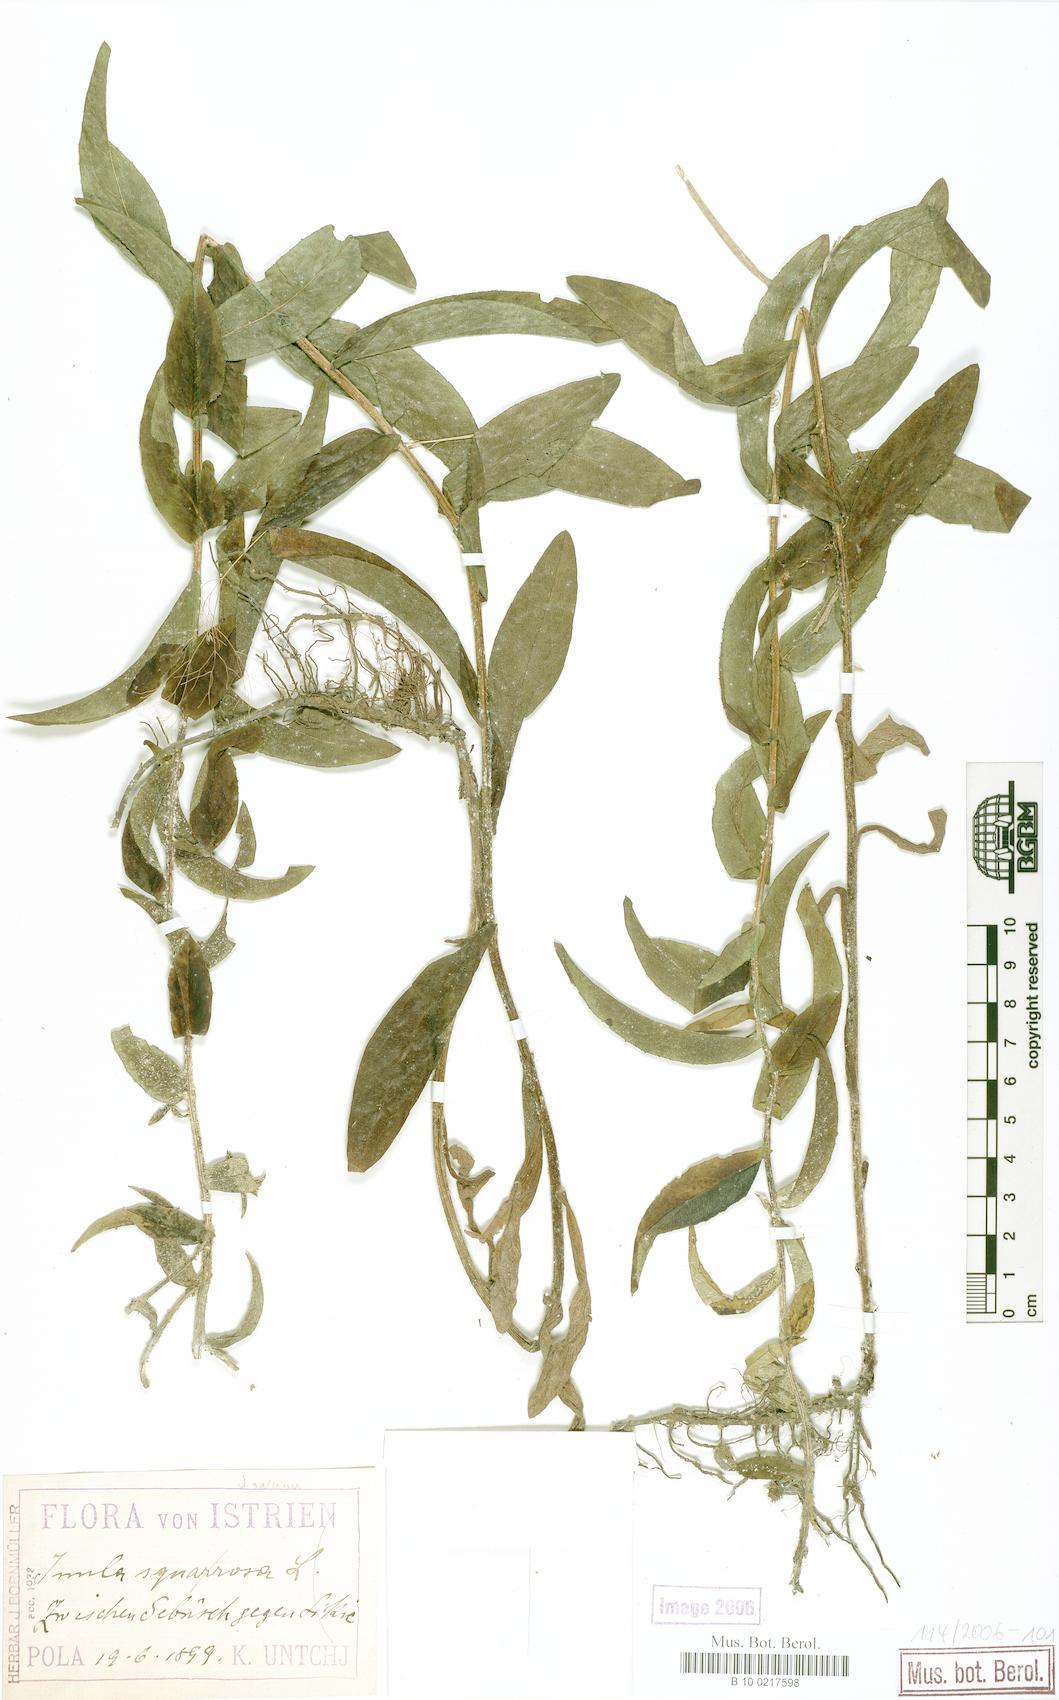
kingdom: Plantae
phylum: Tracheophyta
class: Magnoliopsida
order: Asterales
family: Asteraceae
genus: Pentanema
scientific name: Pentanema salicinum
